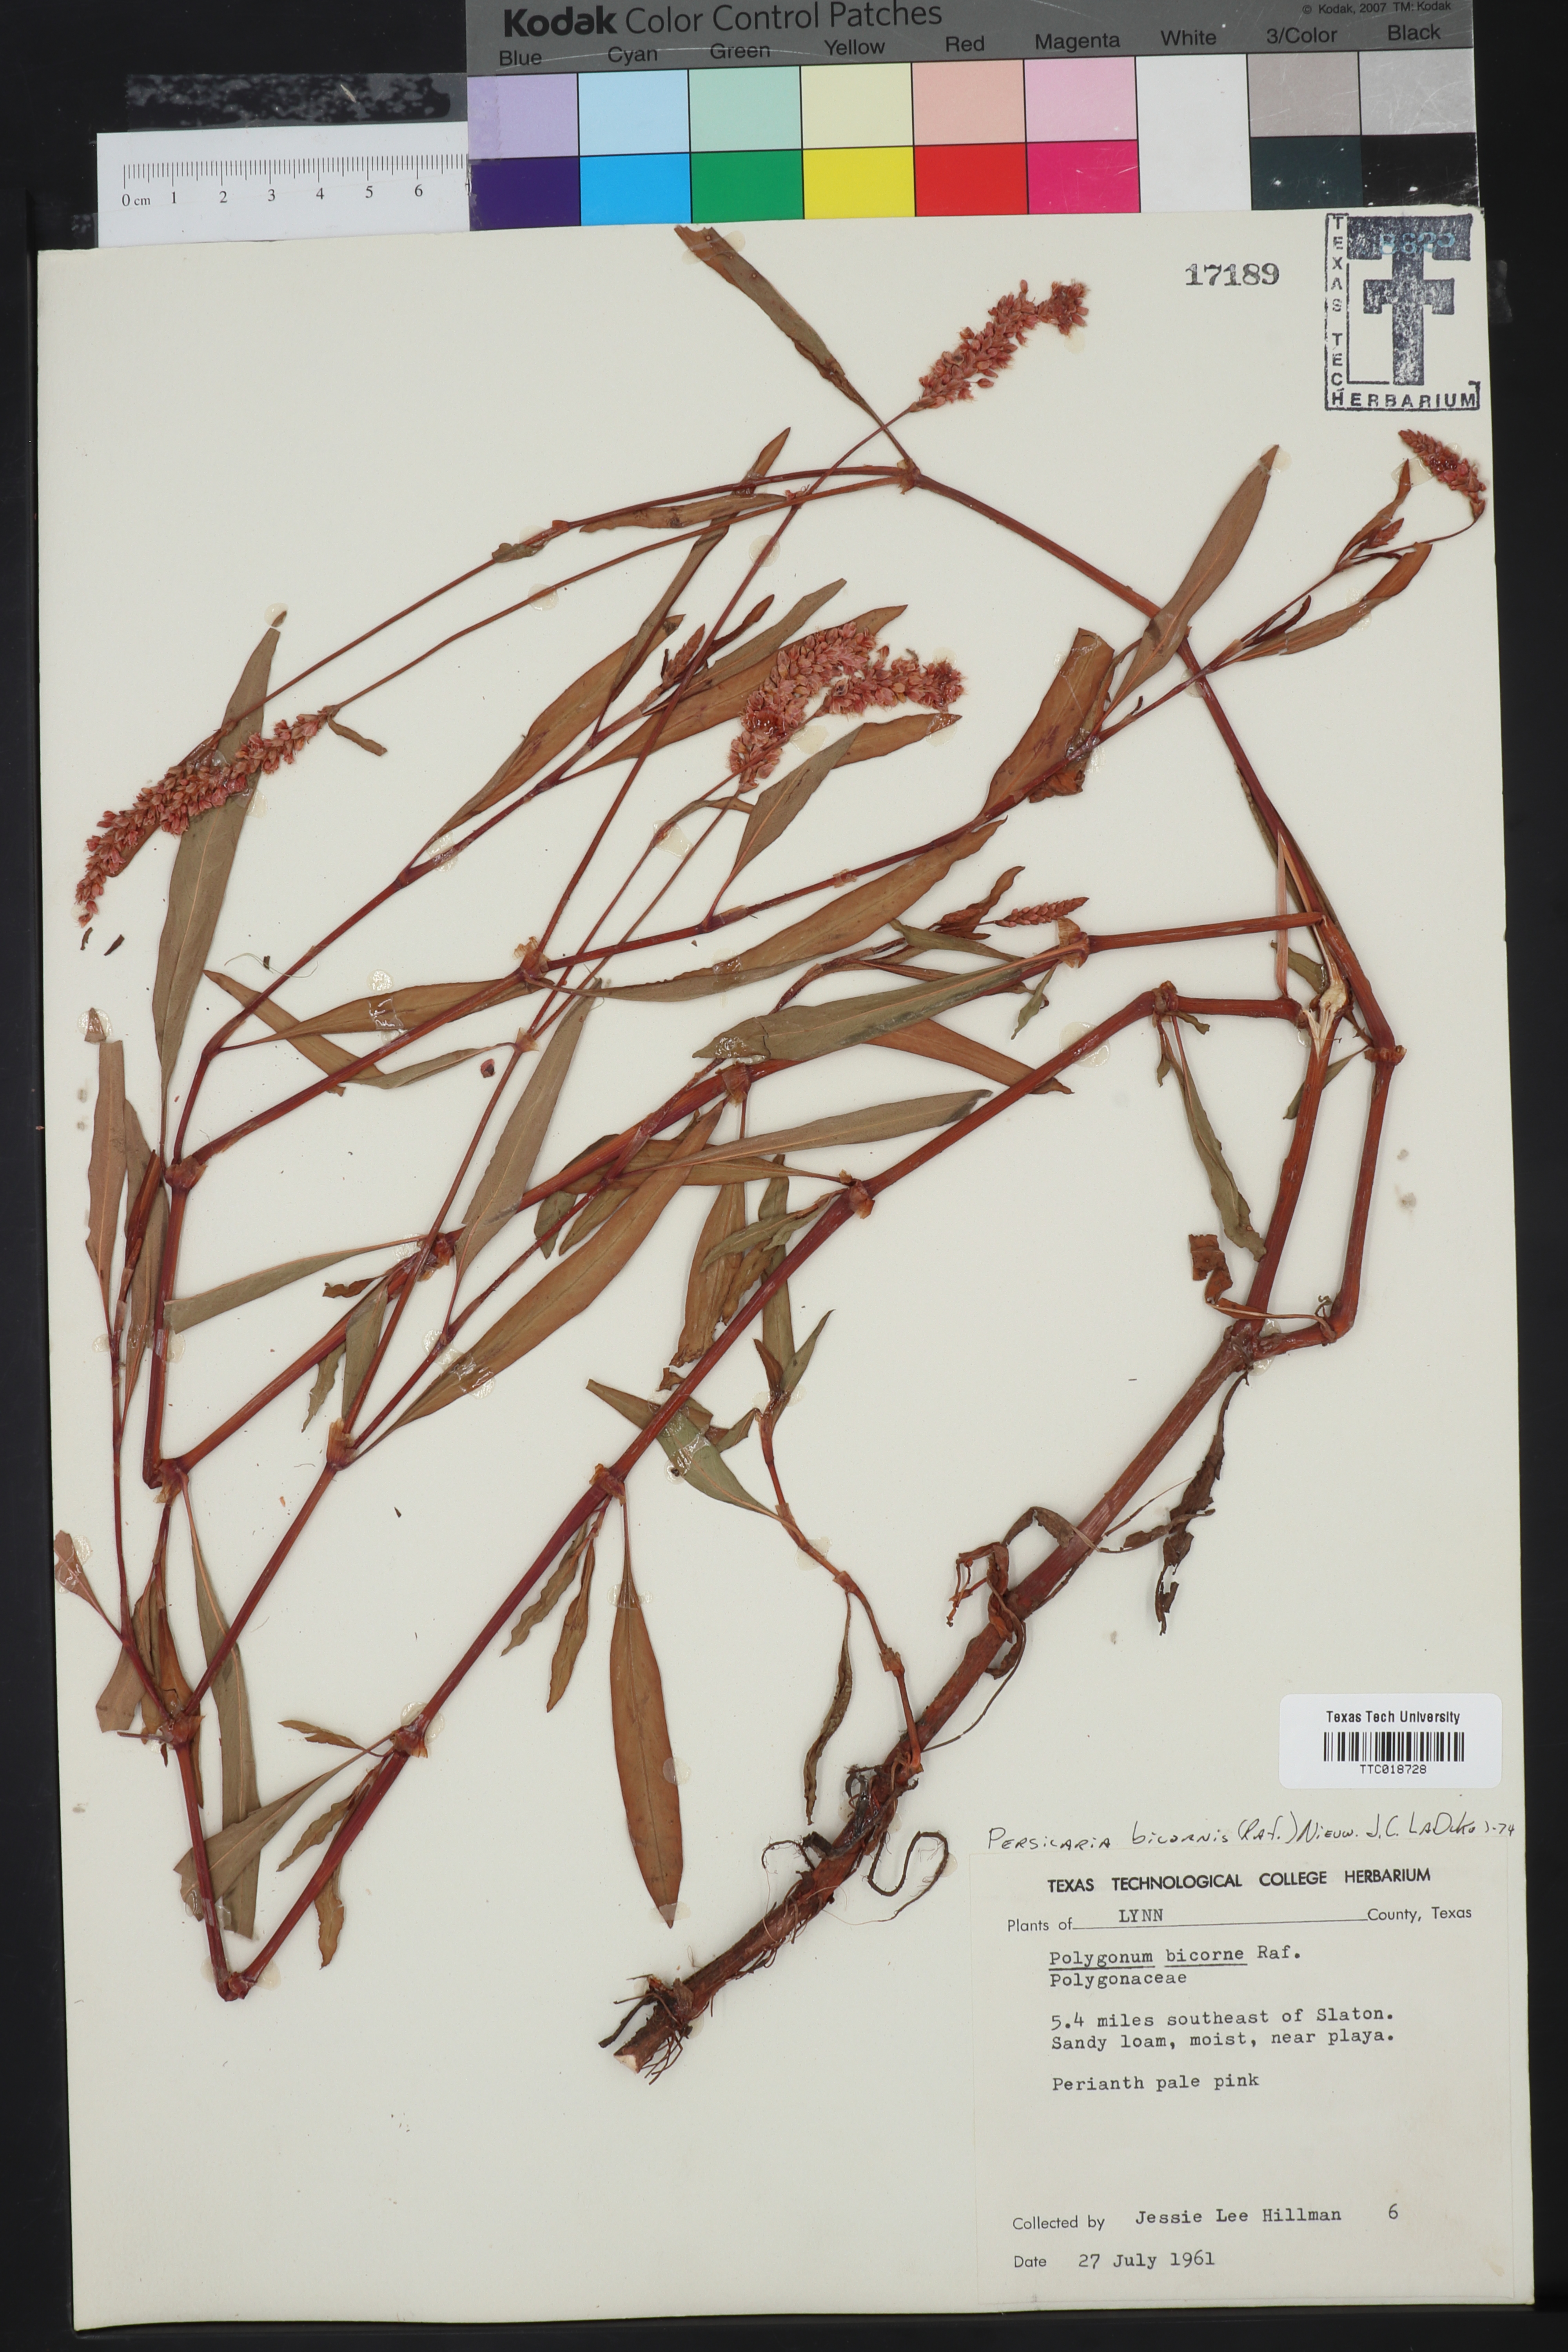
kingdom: Plantae
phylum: Tracheophyta
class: Magnoliopsida
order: Caryophyllales
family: Polygonaceae
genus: Persicaria
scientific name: Persicaria bicornis
